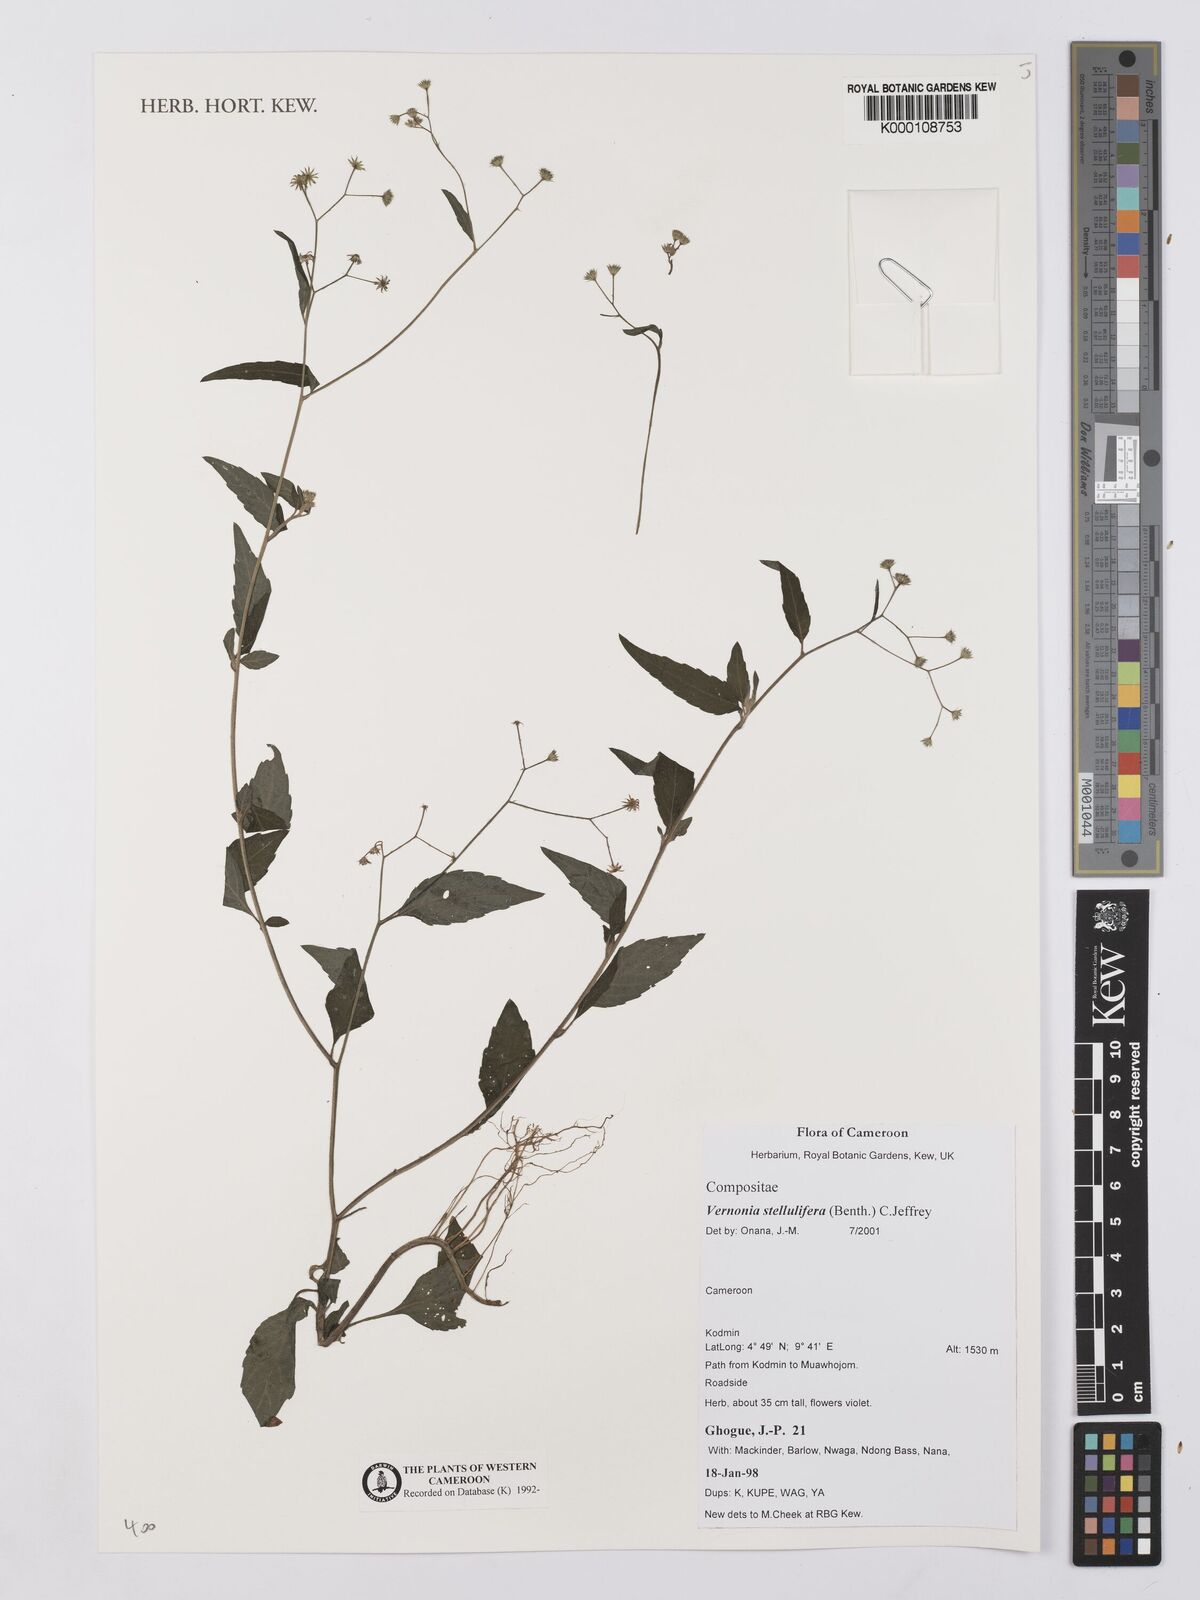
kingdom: Plantae
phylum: Tracheophyta
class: Magnoliopsida
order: Asterales
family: Asteraceae
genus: Cyanthillium
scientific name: Cyanthillium stelluliferum
